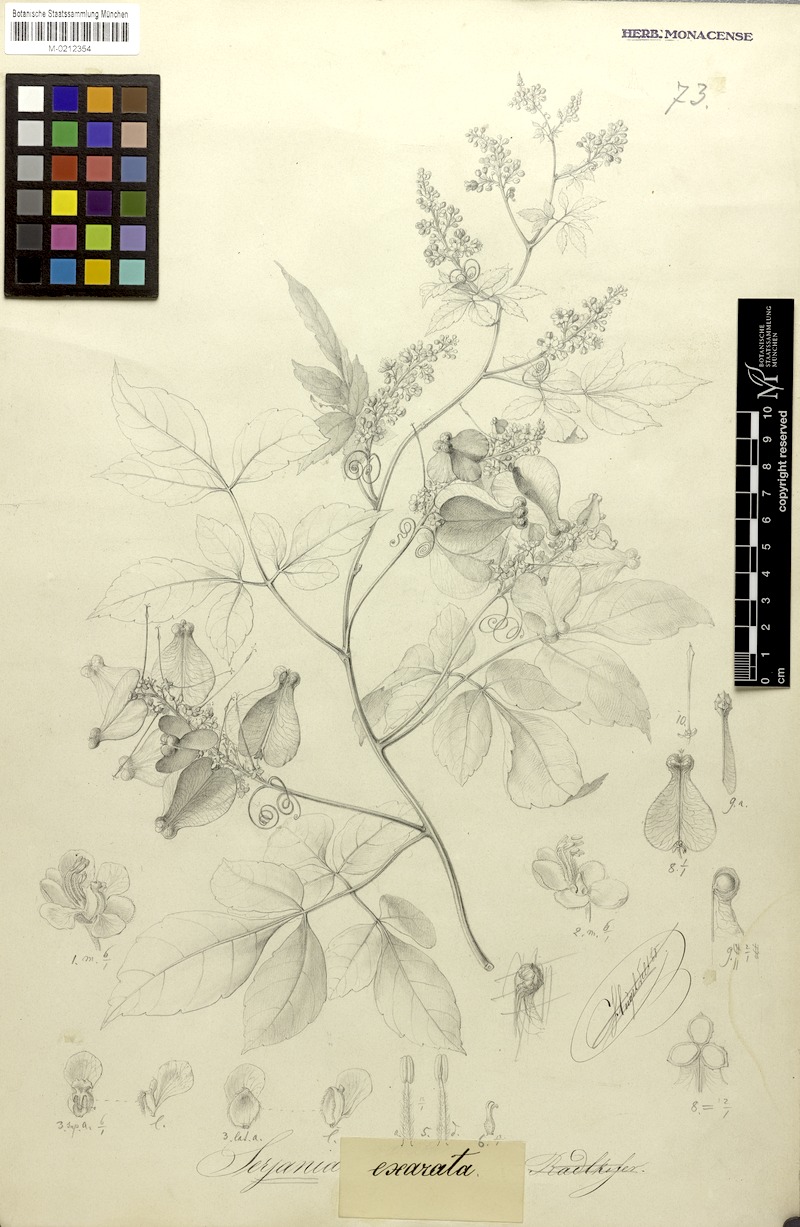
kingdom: Plantae
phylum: Tracheophyta
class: Magnoliopsida
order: Sapindales
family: Sapindaceae
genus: Serjania
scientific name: Serjania membranacea
